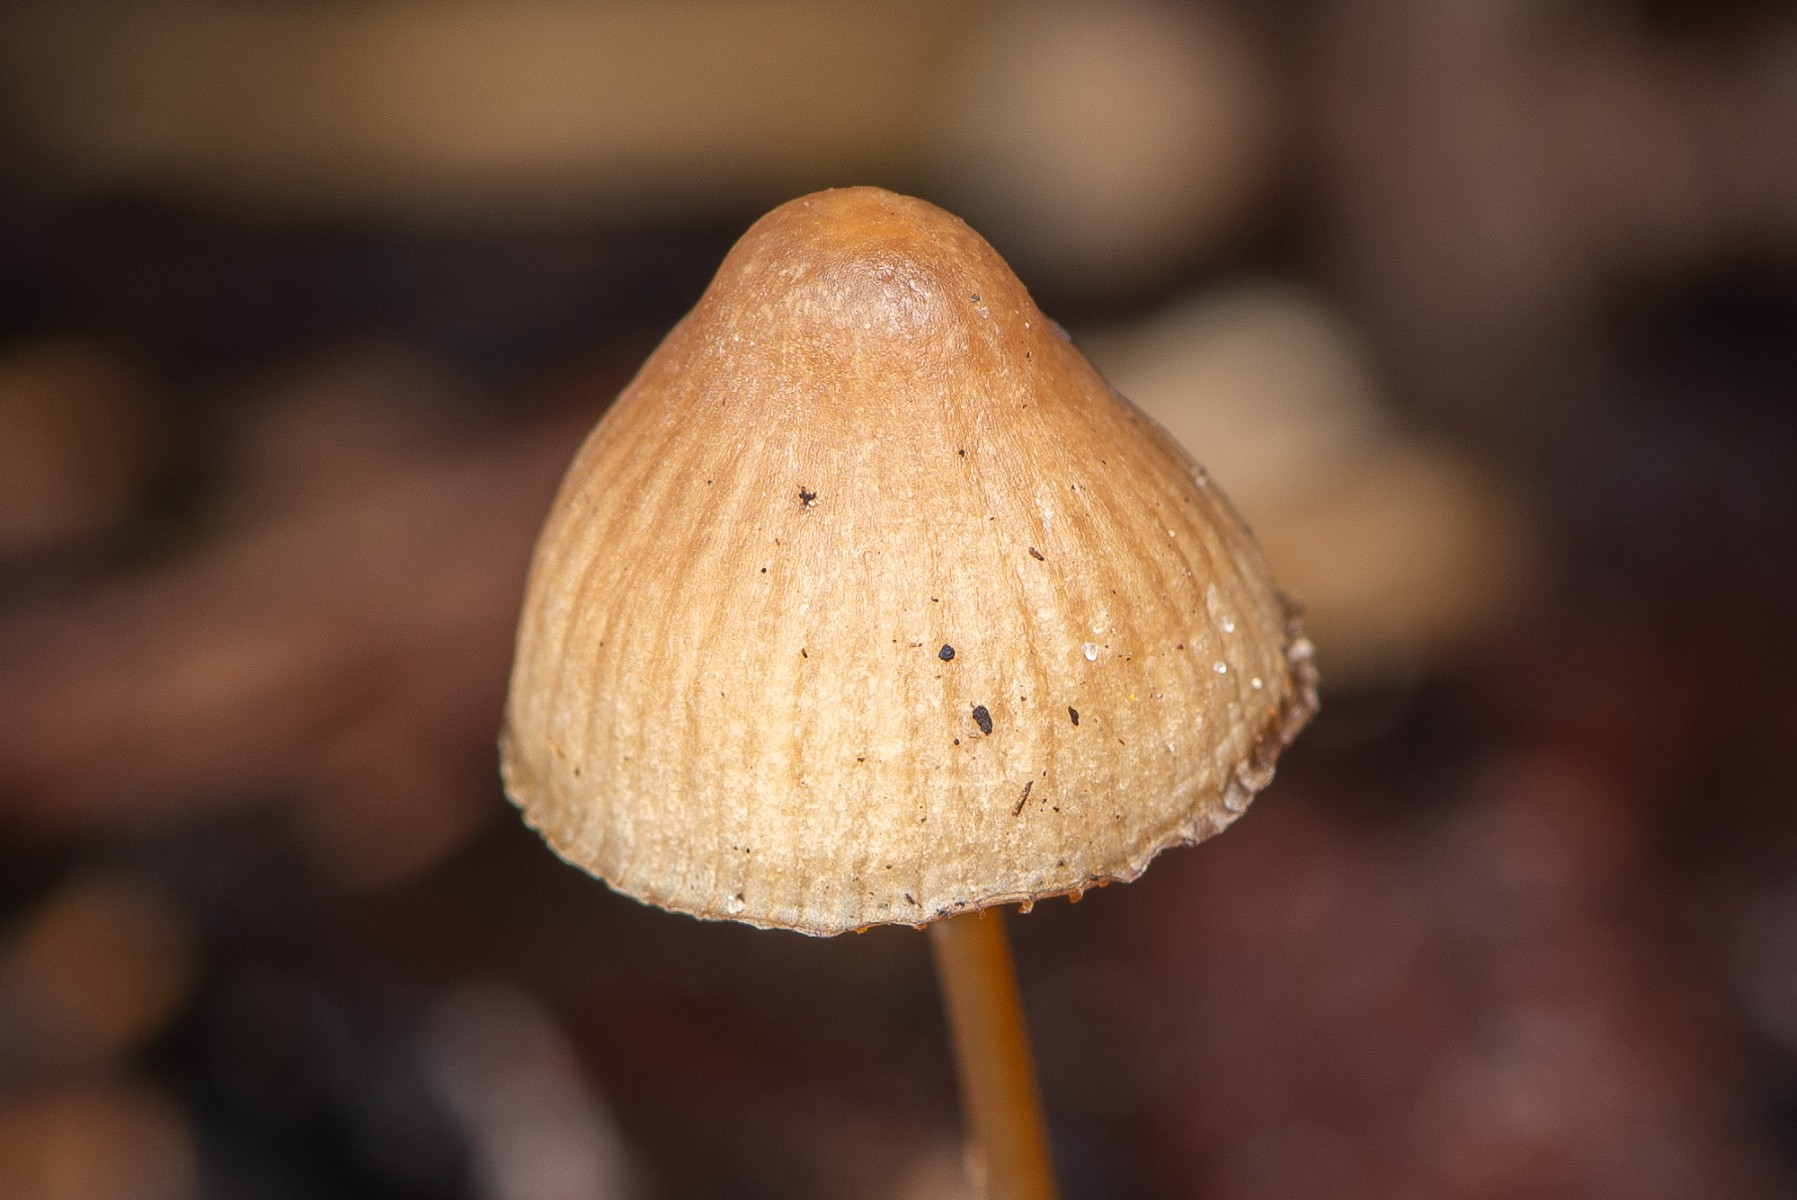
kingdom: Fungi
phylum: Basidiomycota
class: Agaricomycetes
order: Agaricales
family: Mycenaceae
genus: Mycena
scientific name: Mycena
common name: huesvamp
